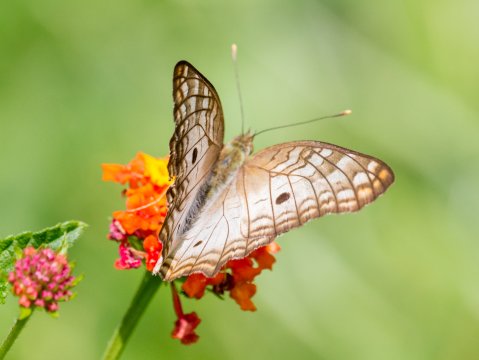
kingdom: Animalia
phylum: Arthropoda
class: Insecta
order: Lepidoptera
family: Nymphalidae
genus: Anartia
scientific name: Anartia jatrophae
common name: White Peacock
